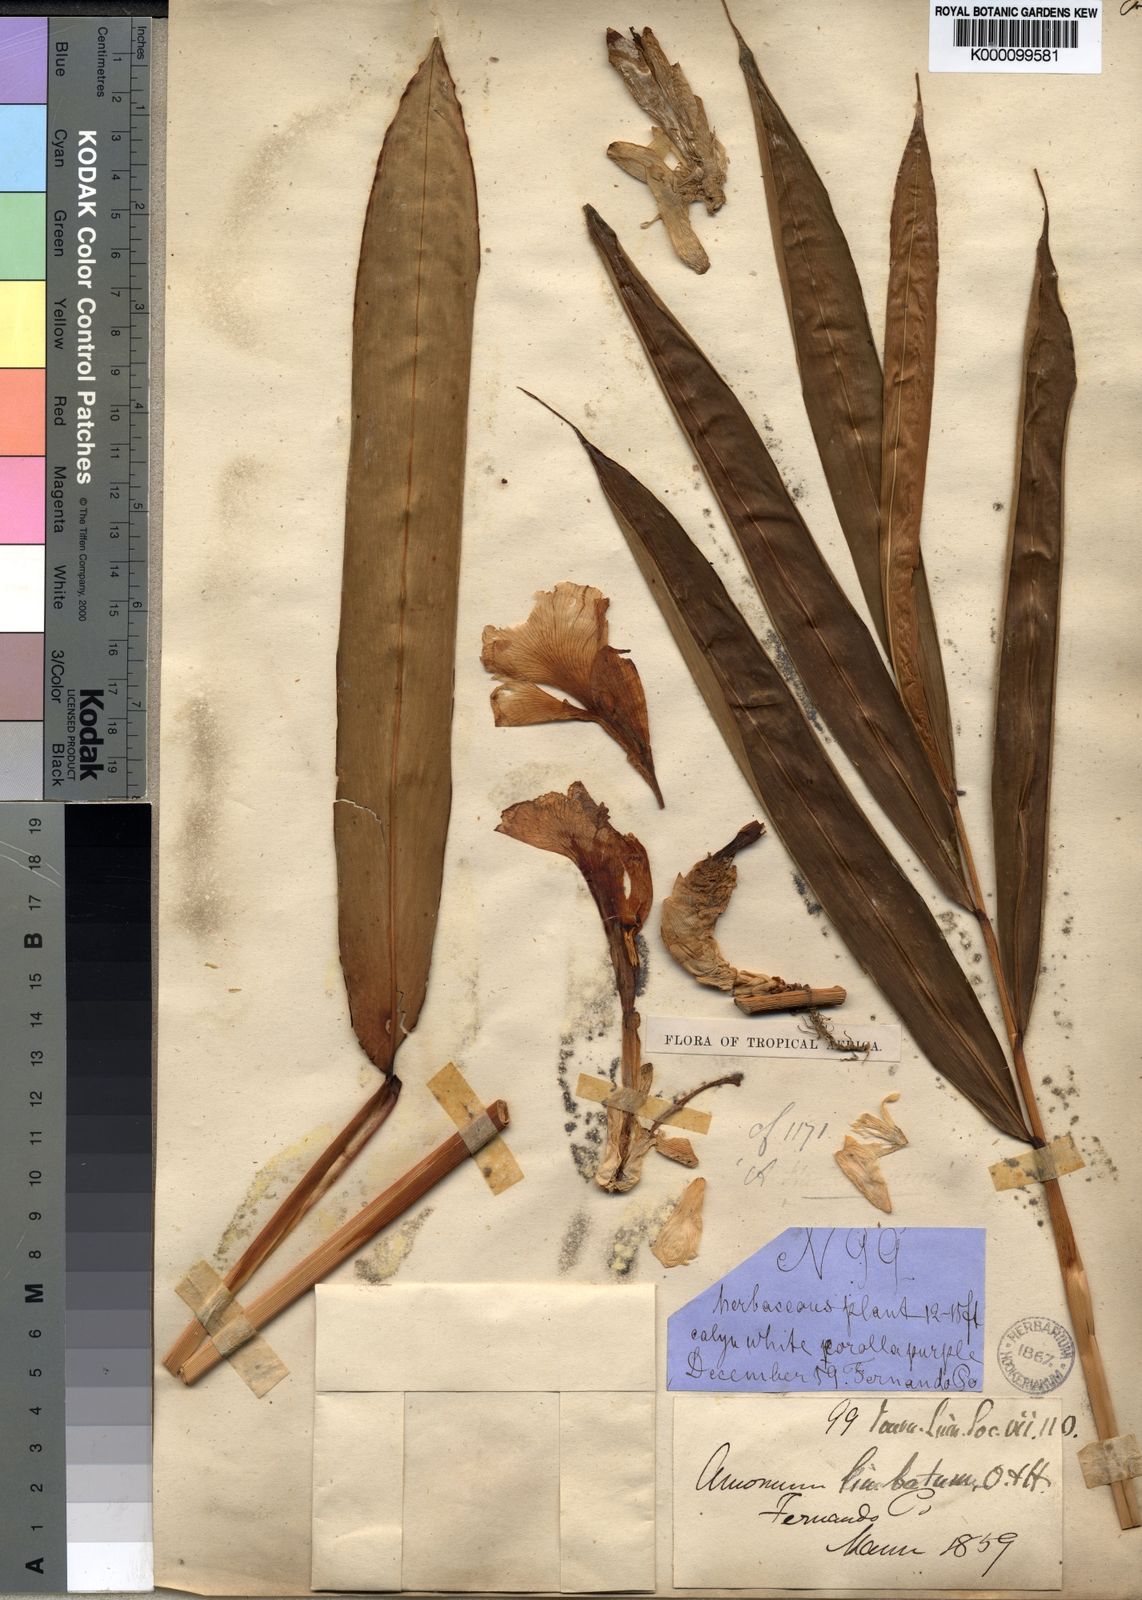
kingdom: Plantae
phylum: Tracheophyta
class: Liliopsida
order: Zingiberales
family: Zingiberaceae
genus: Aframomum
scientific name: Aframomum limbatum
